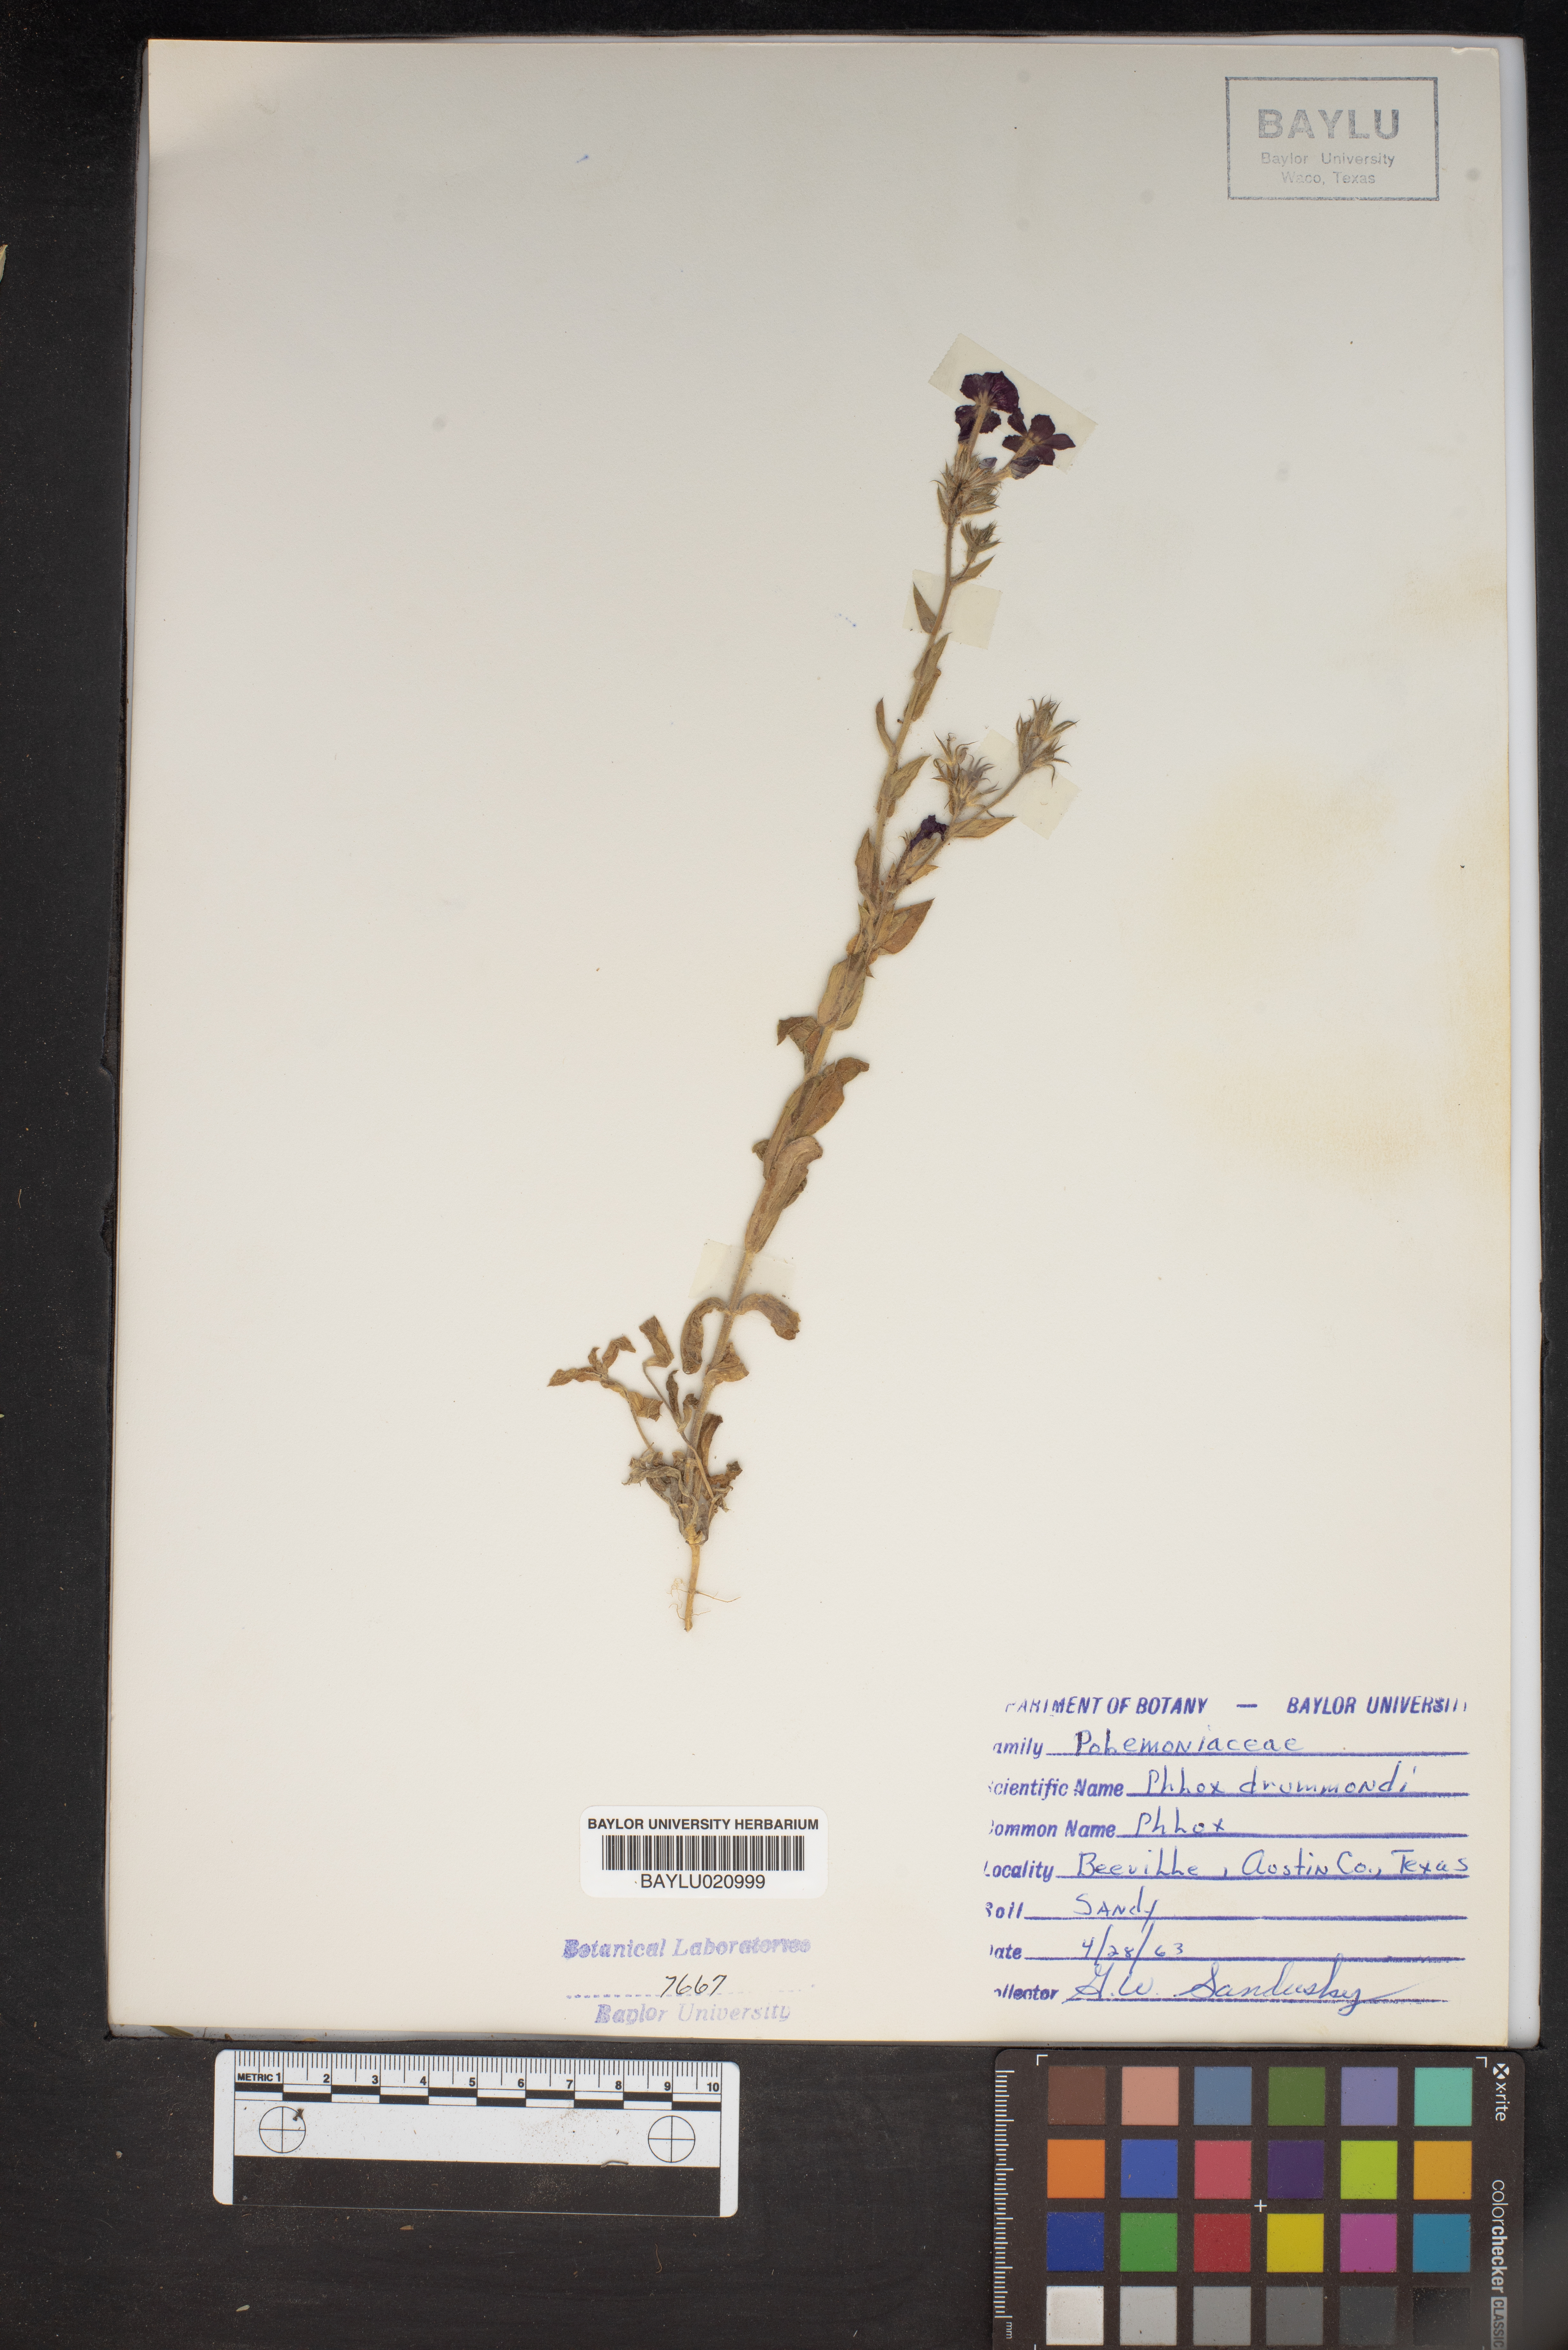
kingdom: Plantae
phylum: Tracheophyta
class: Magnoliopsida
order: Ericales
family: Polemoniaceae
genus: Phlox
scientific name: Phlox drummondii
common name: Drummond's phlox
